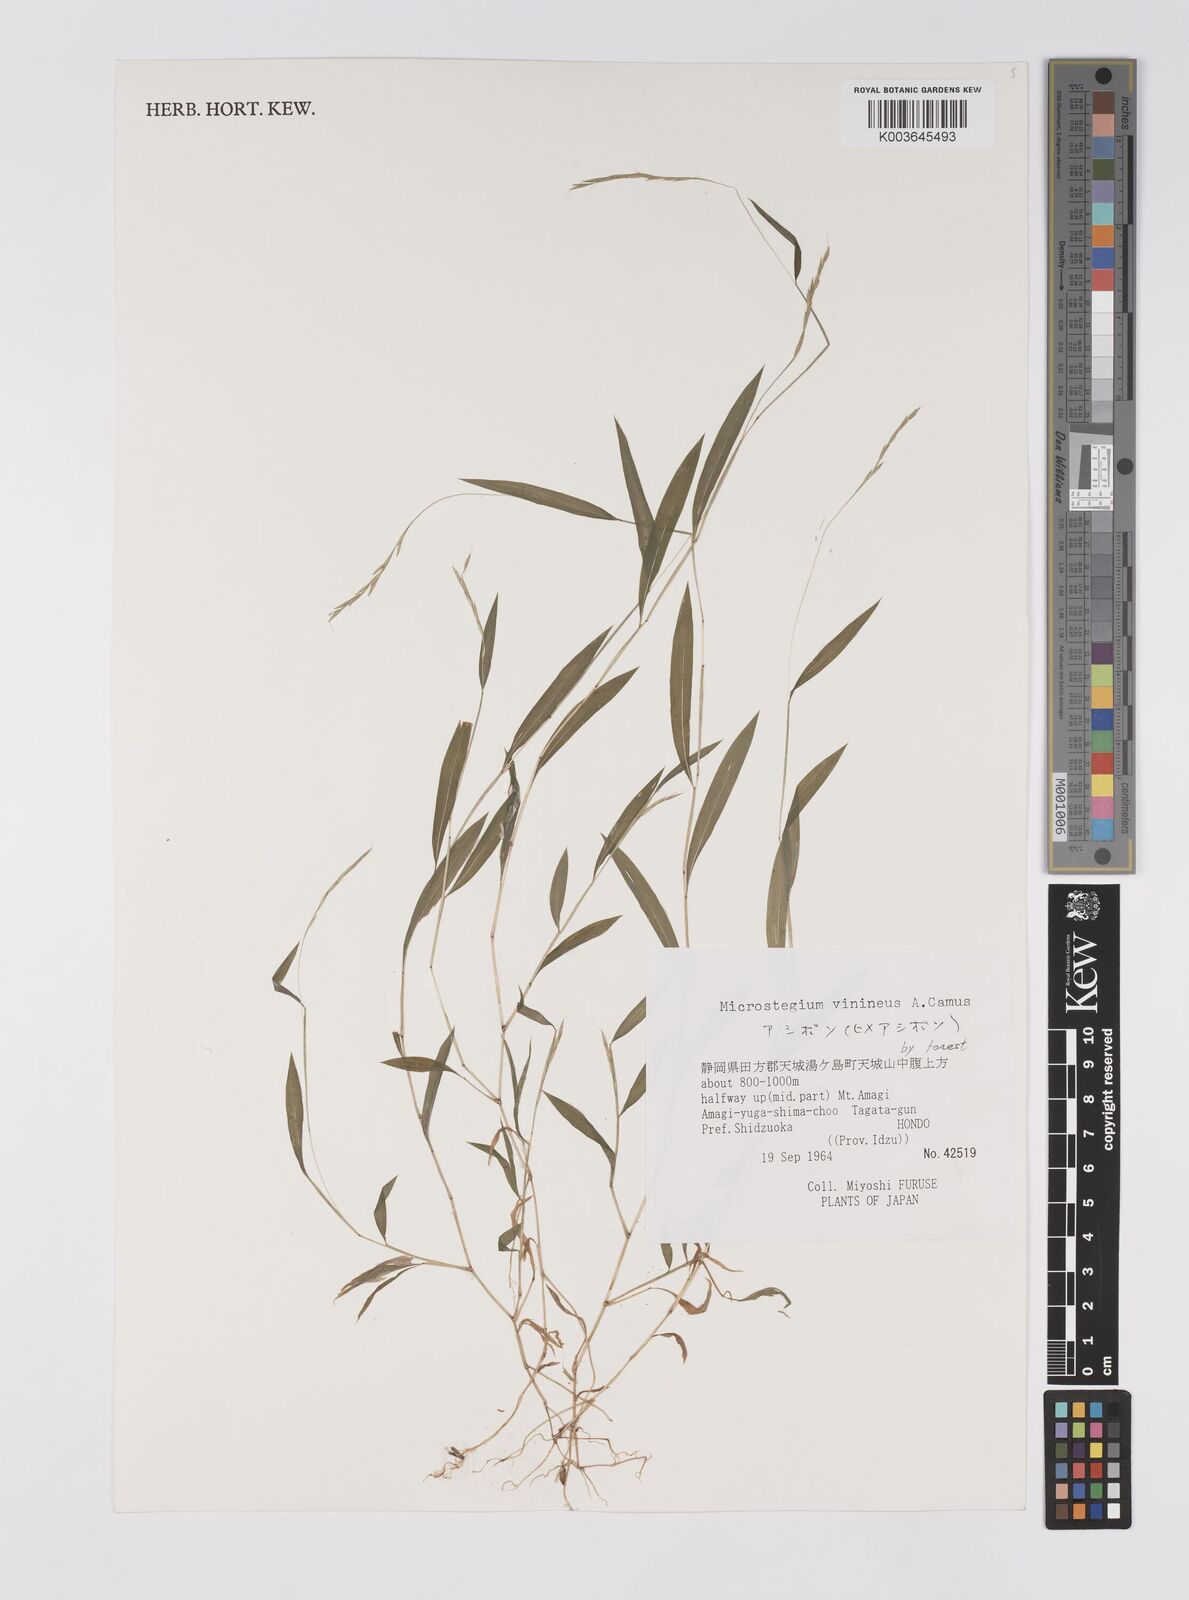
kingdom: Plantae
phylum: Tracheophyta
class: Liliopsida
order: Poales
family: Poaceae
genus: Microstegium
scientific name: Microstegium vimineum
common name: Japanese stiltgrass
